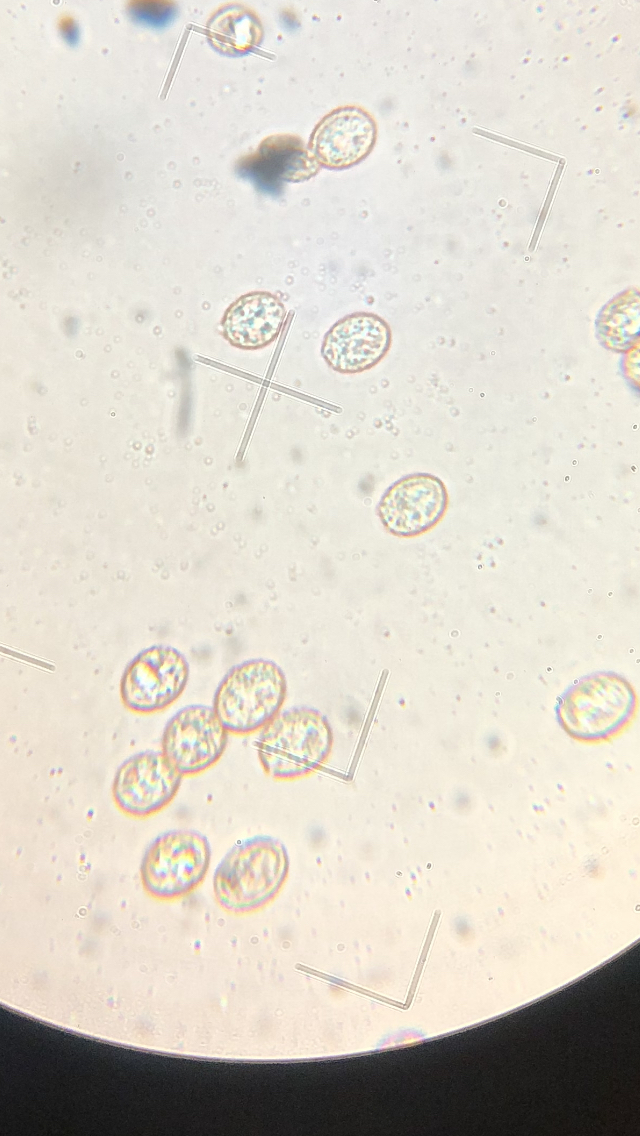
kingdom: Fungi
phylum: Basidiomycota
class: Agaricomycetes
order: Agaricales
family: Crepidotaceae
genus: Crepidotus
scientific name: Crepidotus cesatii
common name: almindelig muslingesvamp
